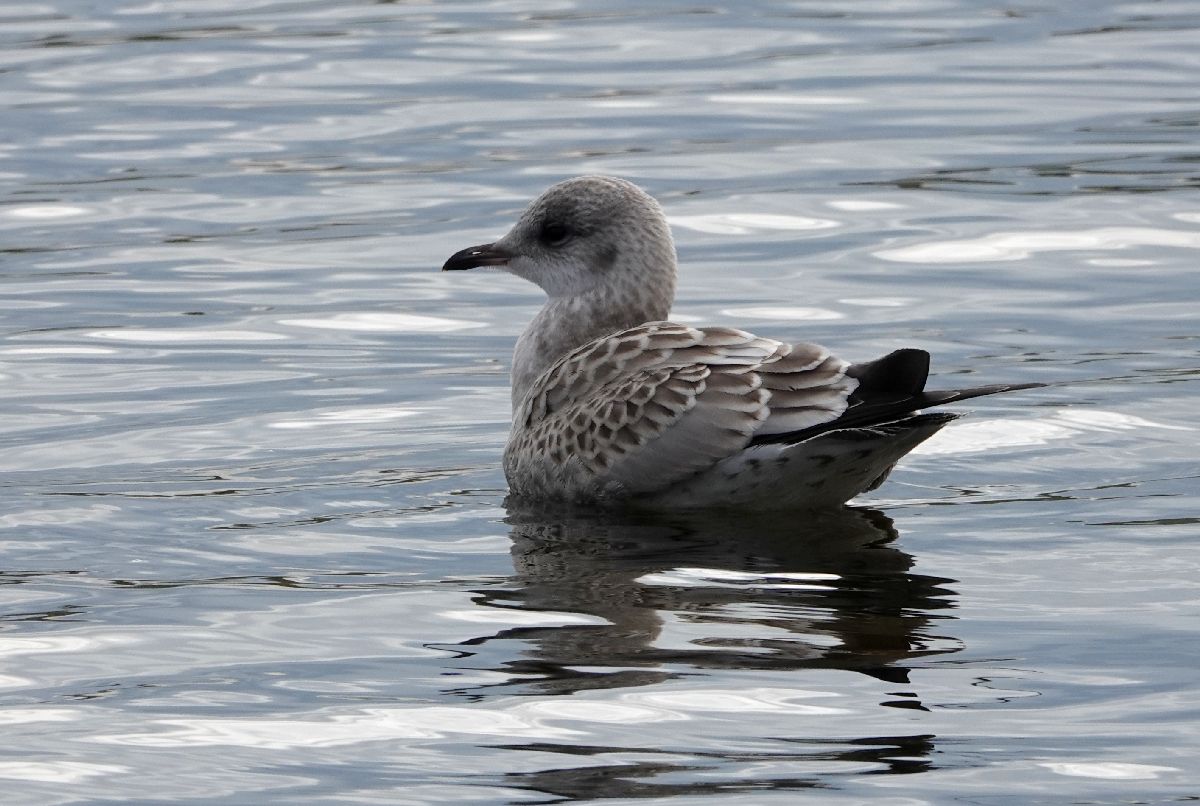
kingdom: Animalia
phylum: Chordata
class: Aves
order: Charadriiformes
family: Laridae
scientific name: Laridae
